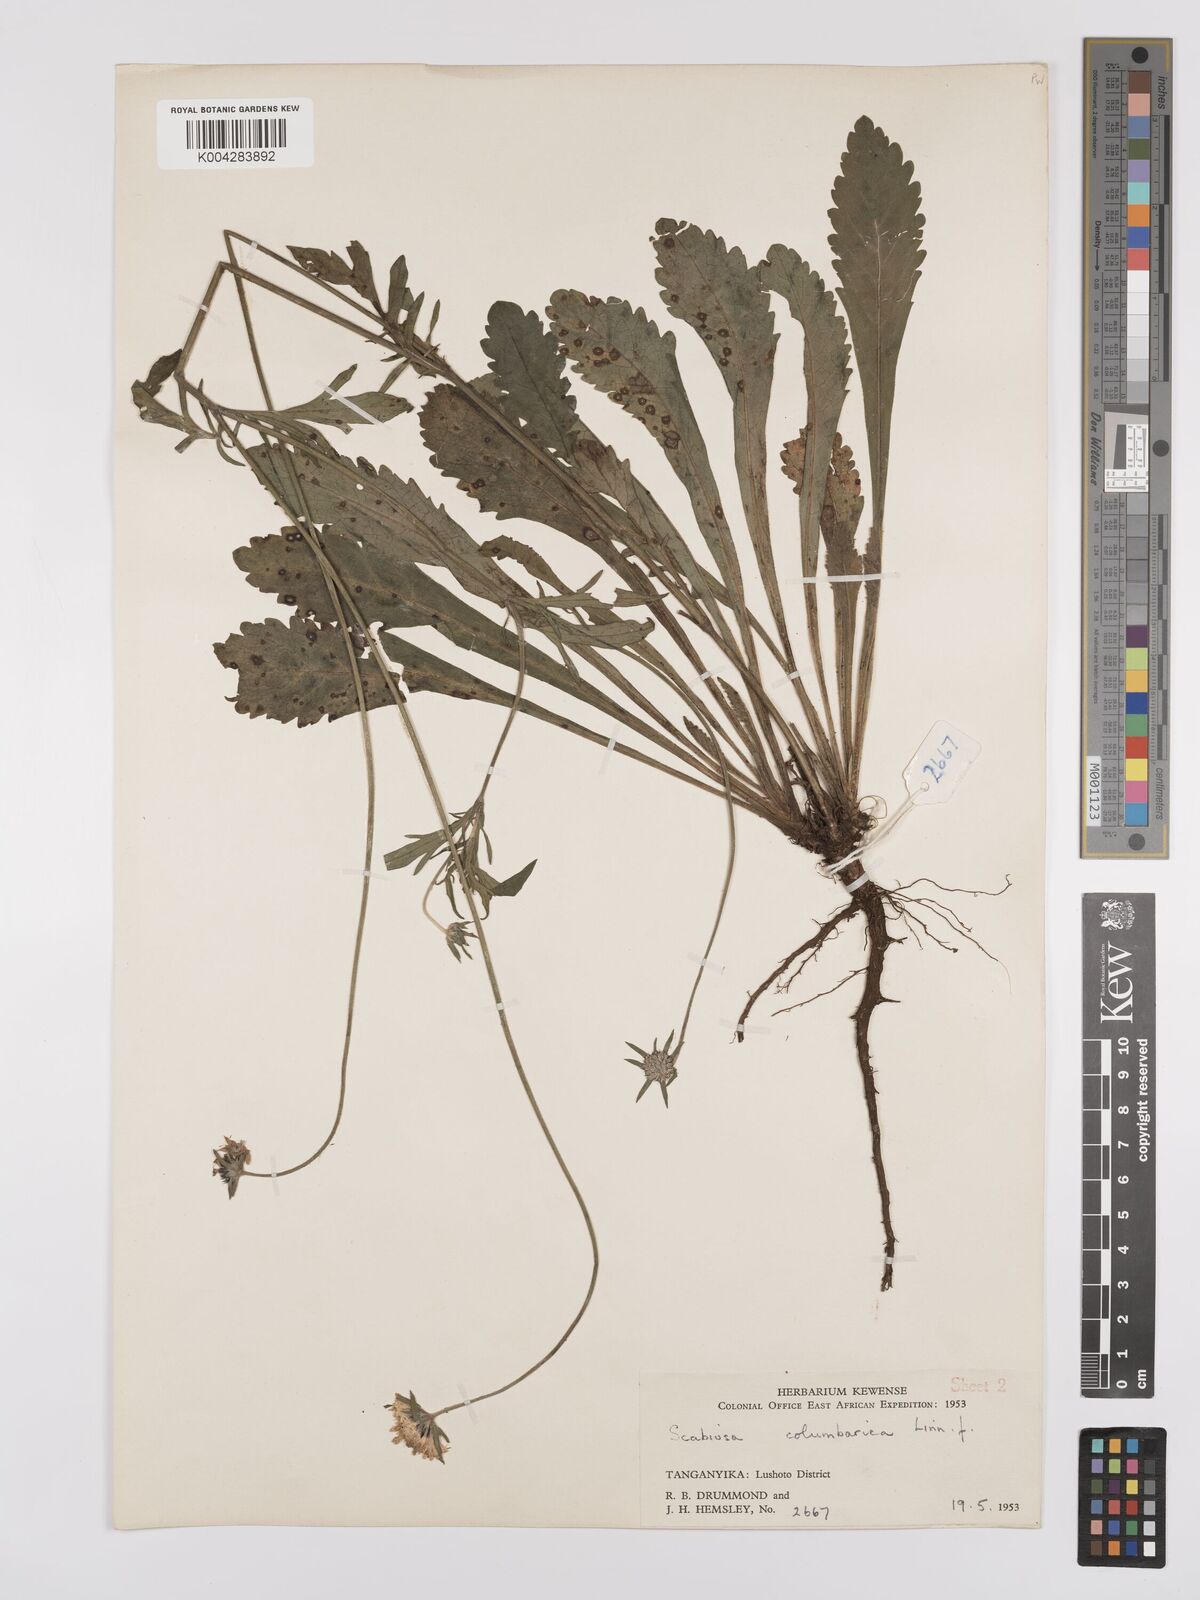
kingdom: Plantae
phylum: Tracheophyta
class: Magnoliopsida
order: Dipsacales
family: Caprifoliaceae
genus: Scabiosa
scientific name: Scabiosa austroafricana
